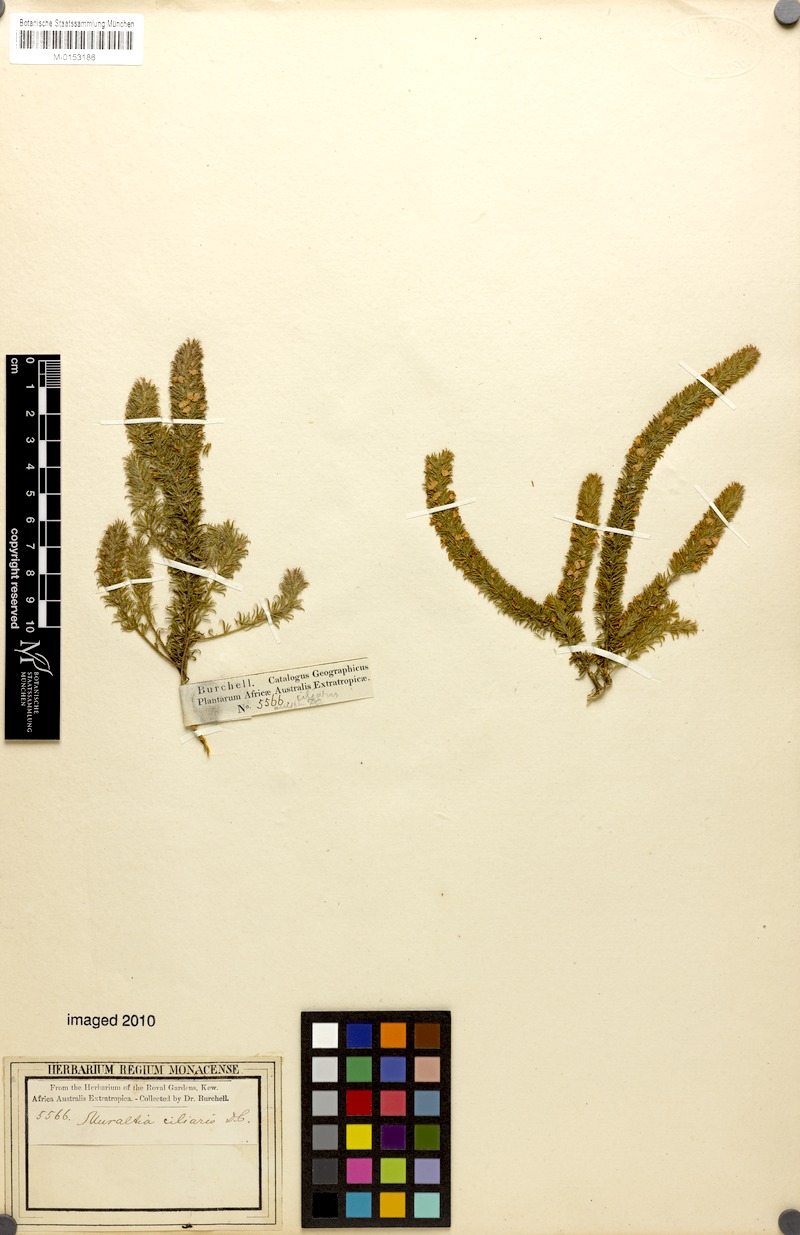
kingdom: Plantae
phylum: Tracheophyta
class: Magnoliopsida
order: Fabales
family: Polygalaceae
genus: Muraltia
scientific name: Muraltia ciliaris
